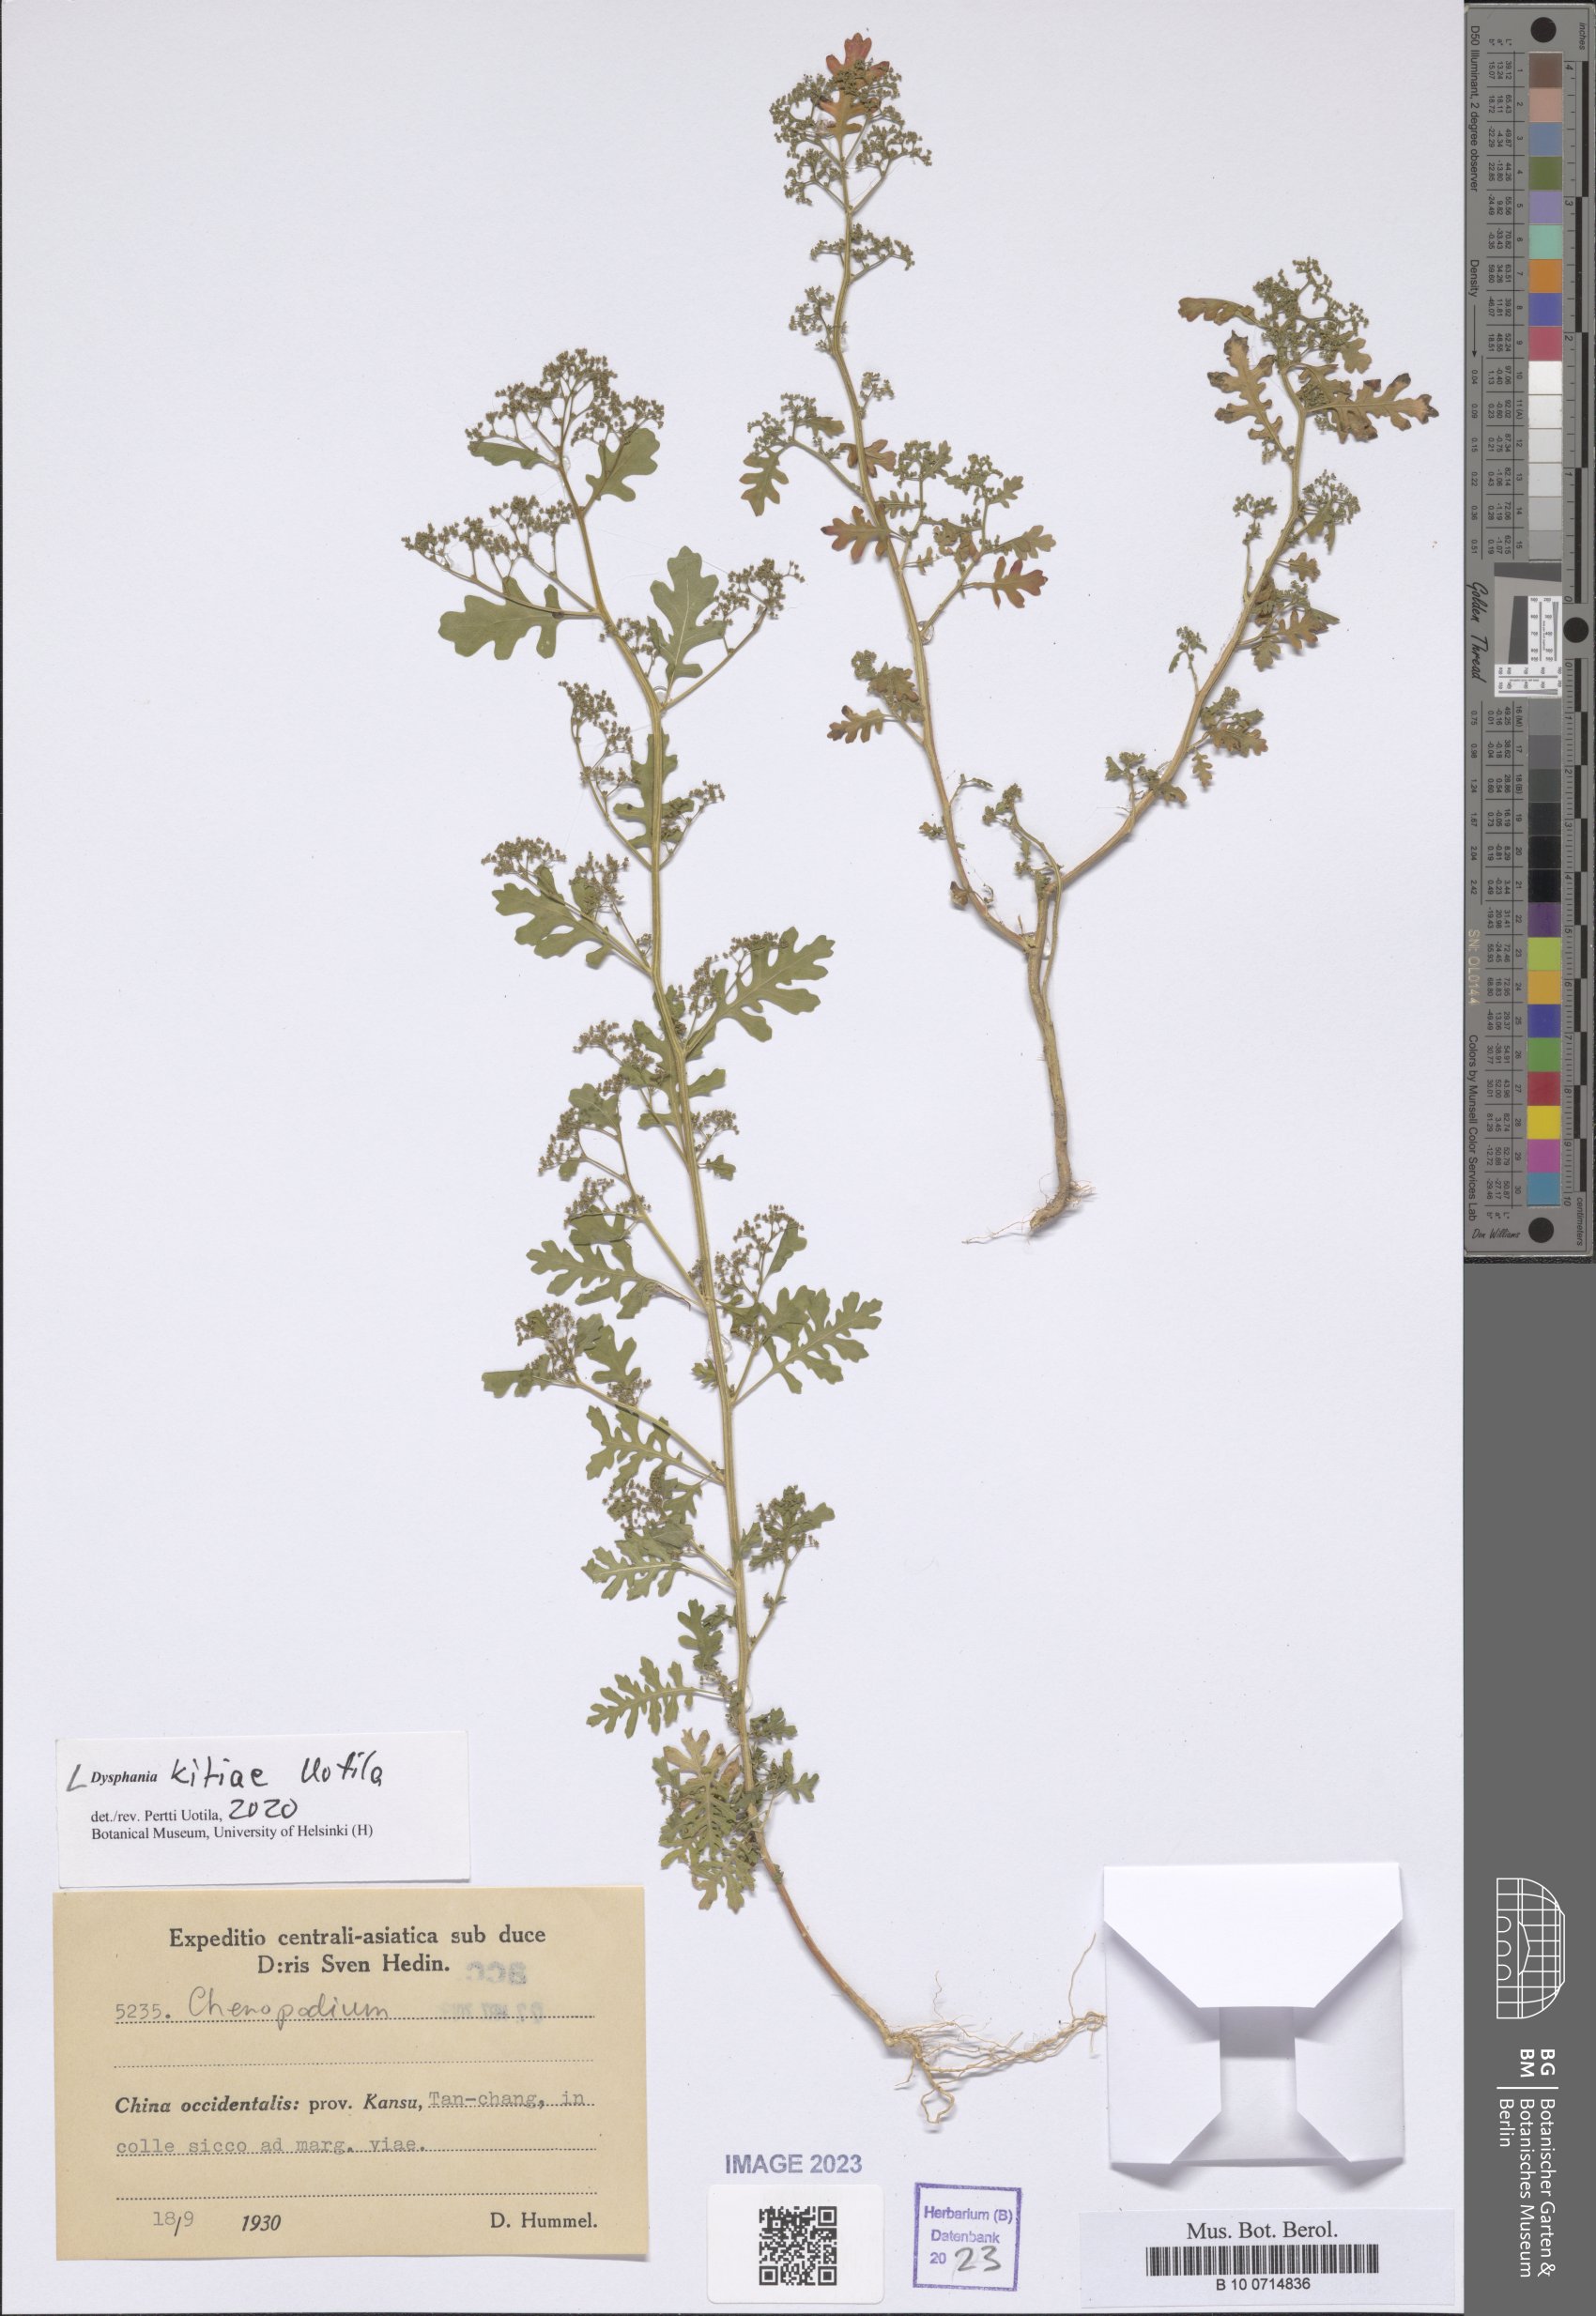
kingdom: Plantae
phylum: Tracheophyta
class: Magnoliopsida
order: Caryophyllales
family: Amaranthaceae
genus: Dysphania
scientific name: Dysphania kitiae
